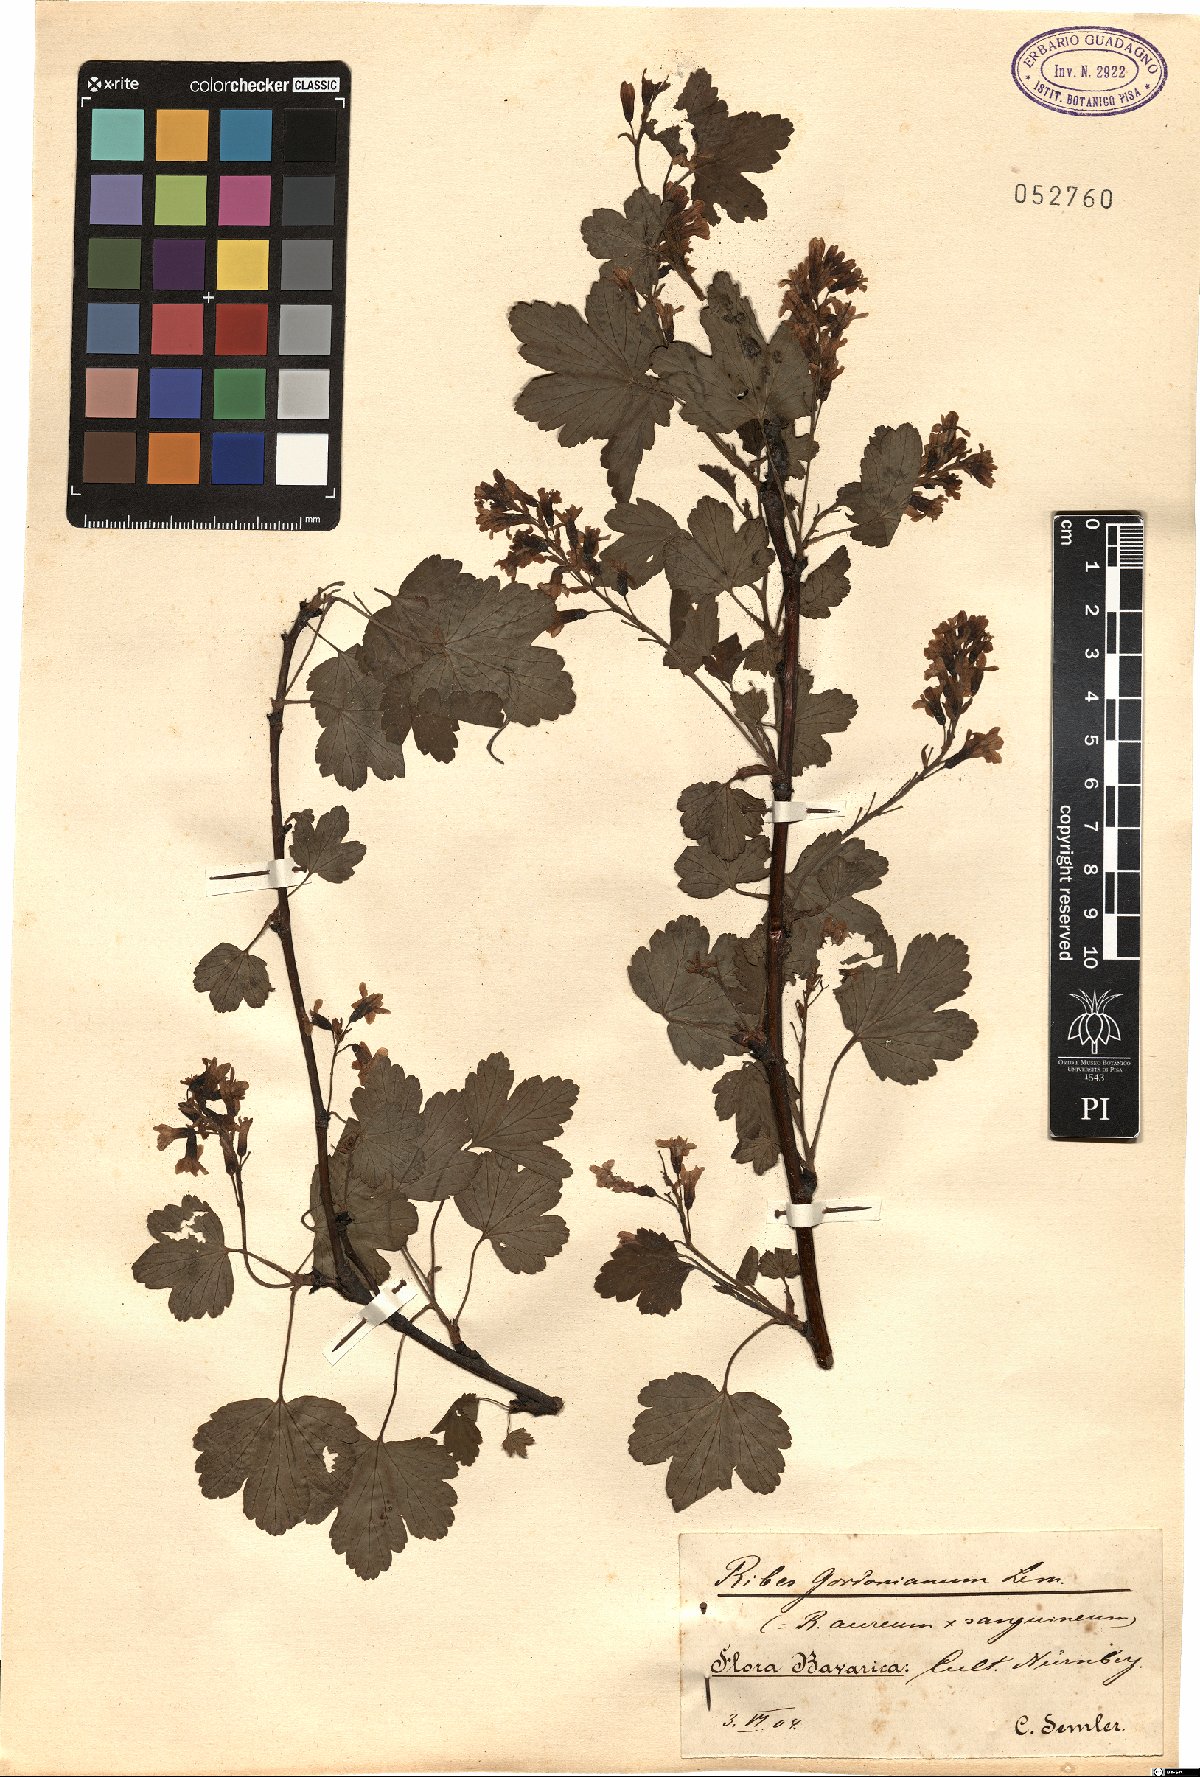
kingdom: Plantae
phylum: Tracheophyta
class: Magnoliopsida
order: Saxifragales
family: Grossulariaceae
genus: Ribes
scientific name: Ribes gordonianum
